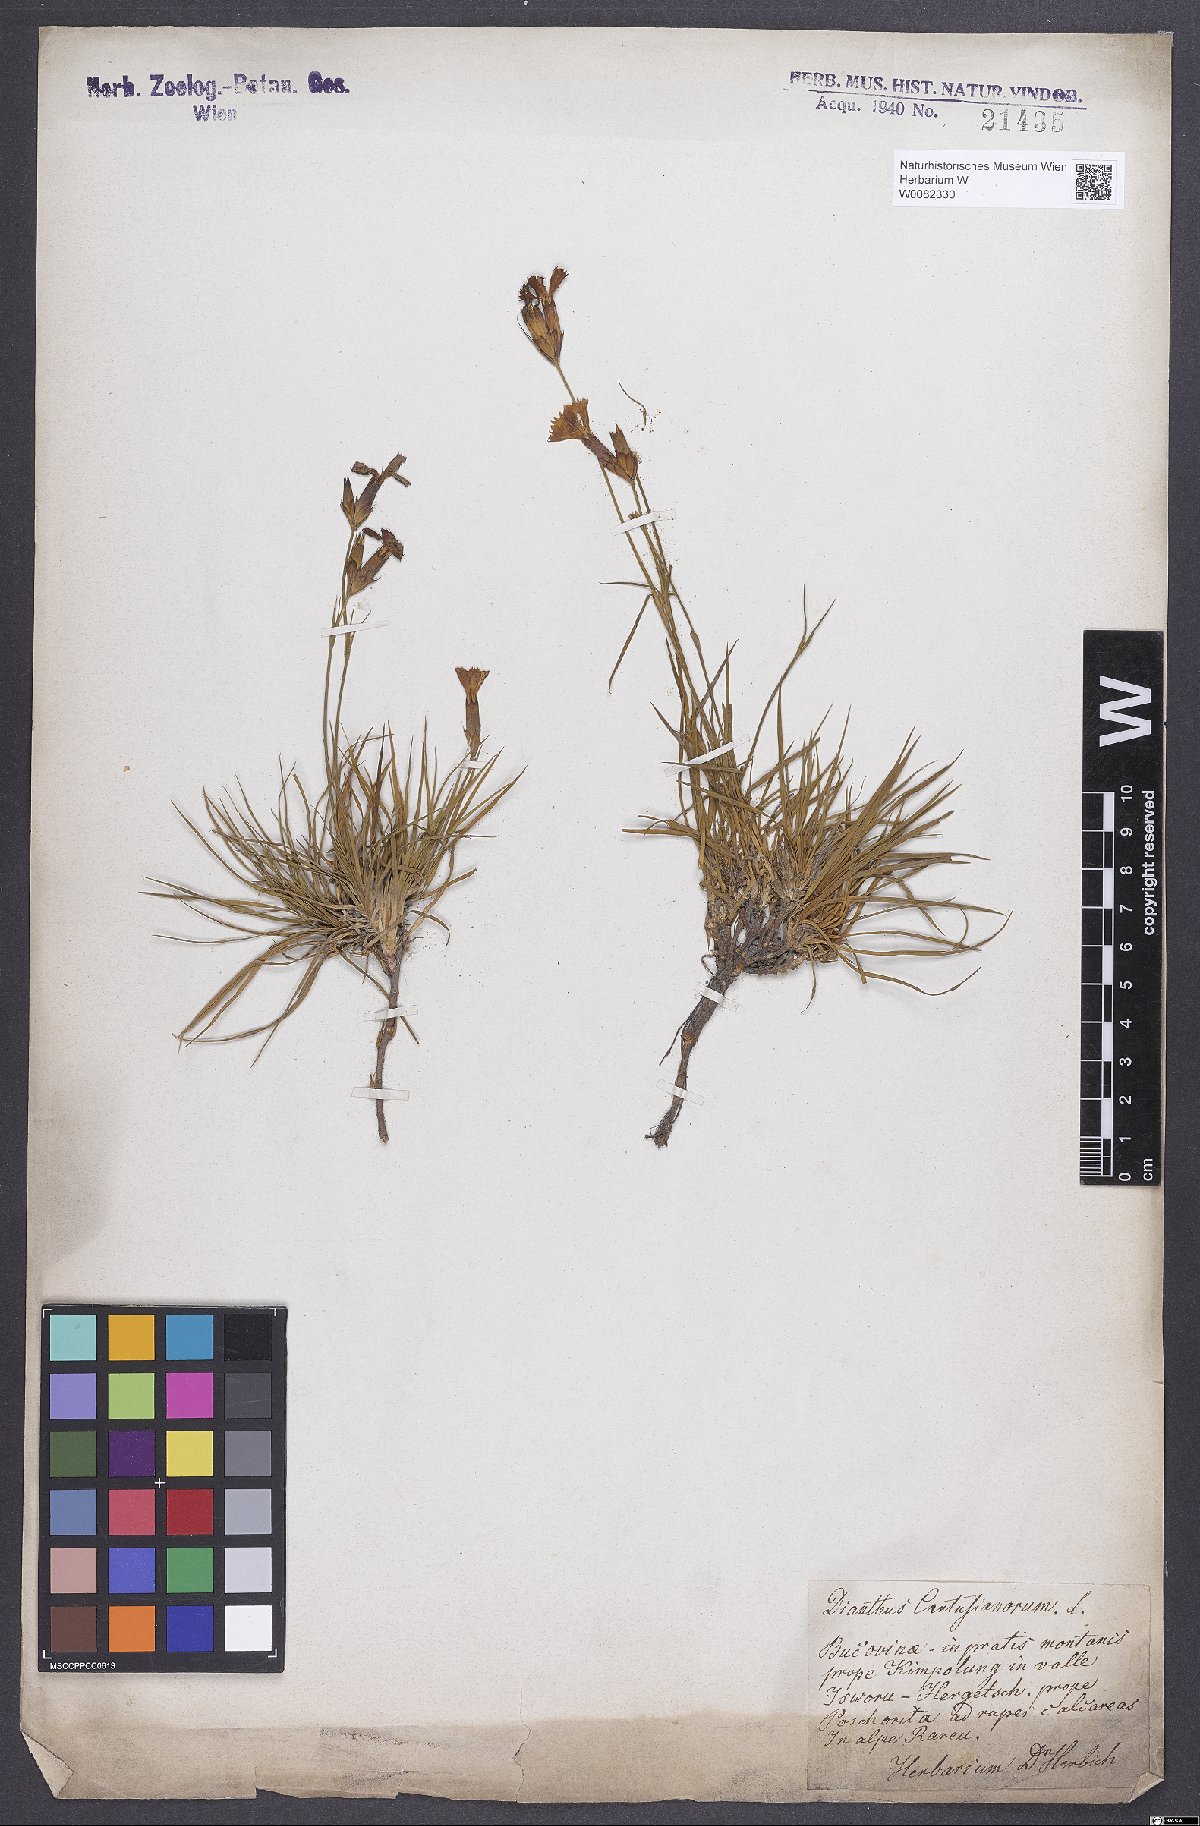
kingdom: Plantae
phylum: Tracheophyta
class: Magnoliopsida
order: Caryophyllales
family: Caryophyllaceae
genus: Dianthus
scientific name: Dianthus carthusianorum
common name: Carthusian pink
